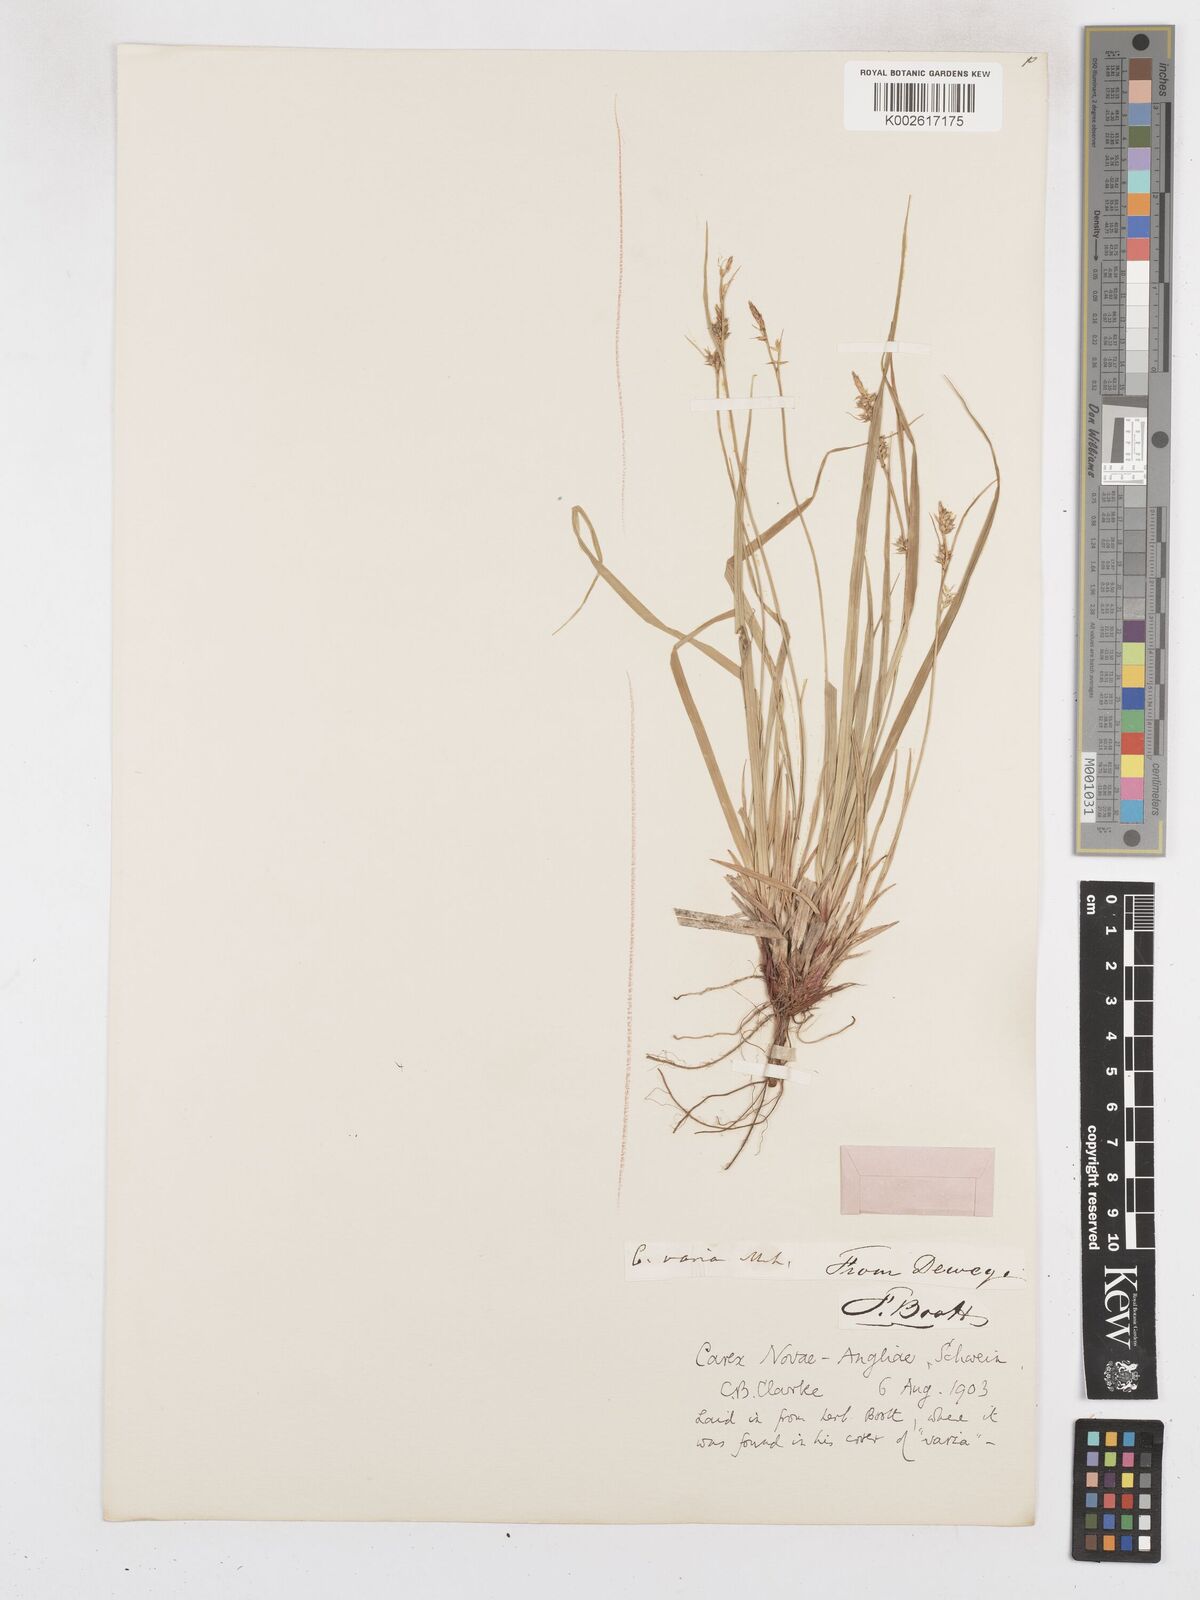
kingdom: Plantae
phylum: Tracheophyta
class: Liliopsida
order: Poales
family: Cyperaceae
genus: Carex
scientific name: Carex novae-angliae
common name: New england sedge
